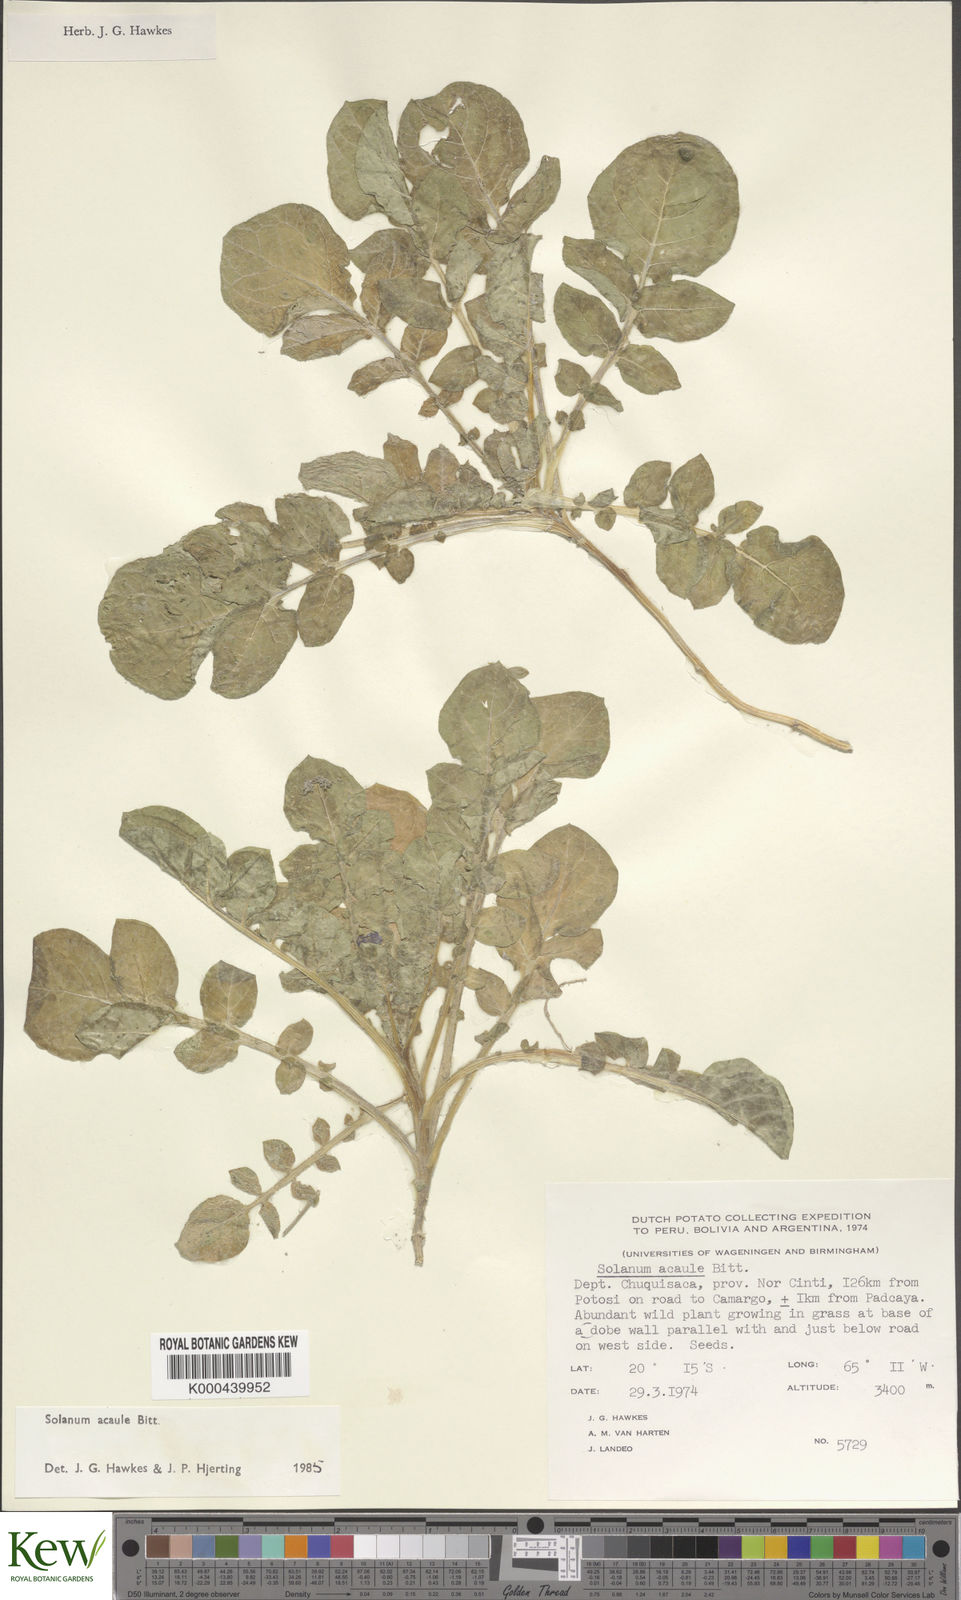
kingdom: Plantae
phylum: Tracheophyta
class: Magnoliopsida
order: Solanales
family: Solanaceae
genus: Solanum
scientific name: Solanum acaule
